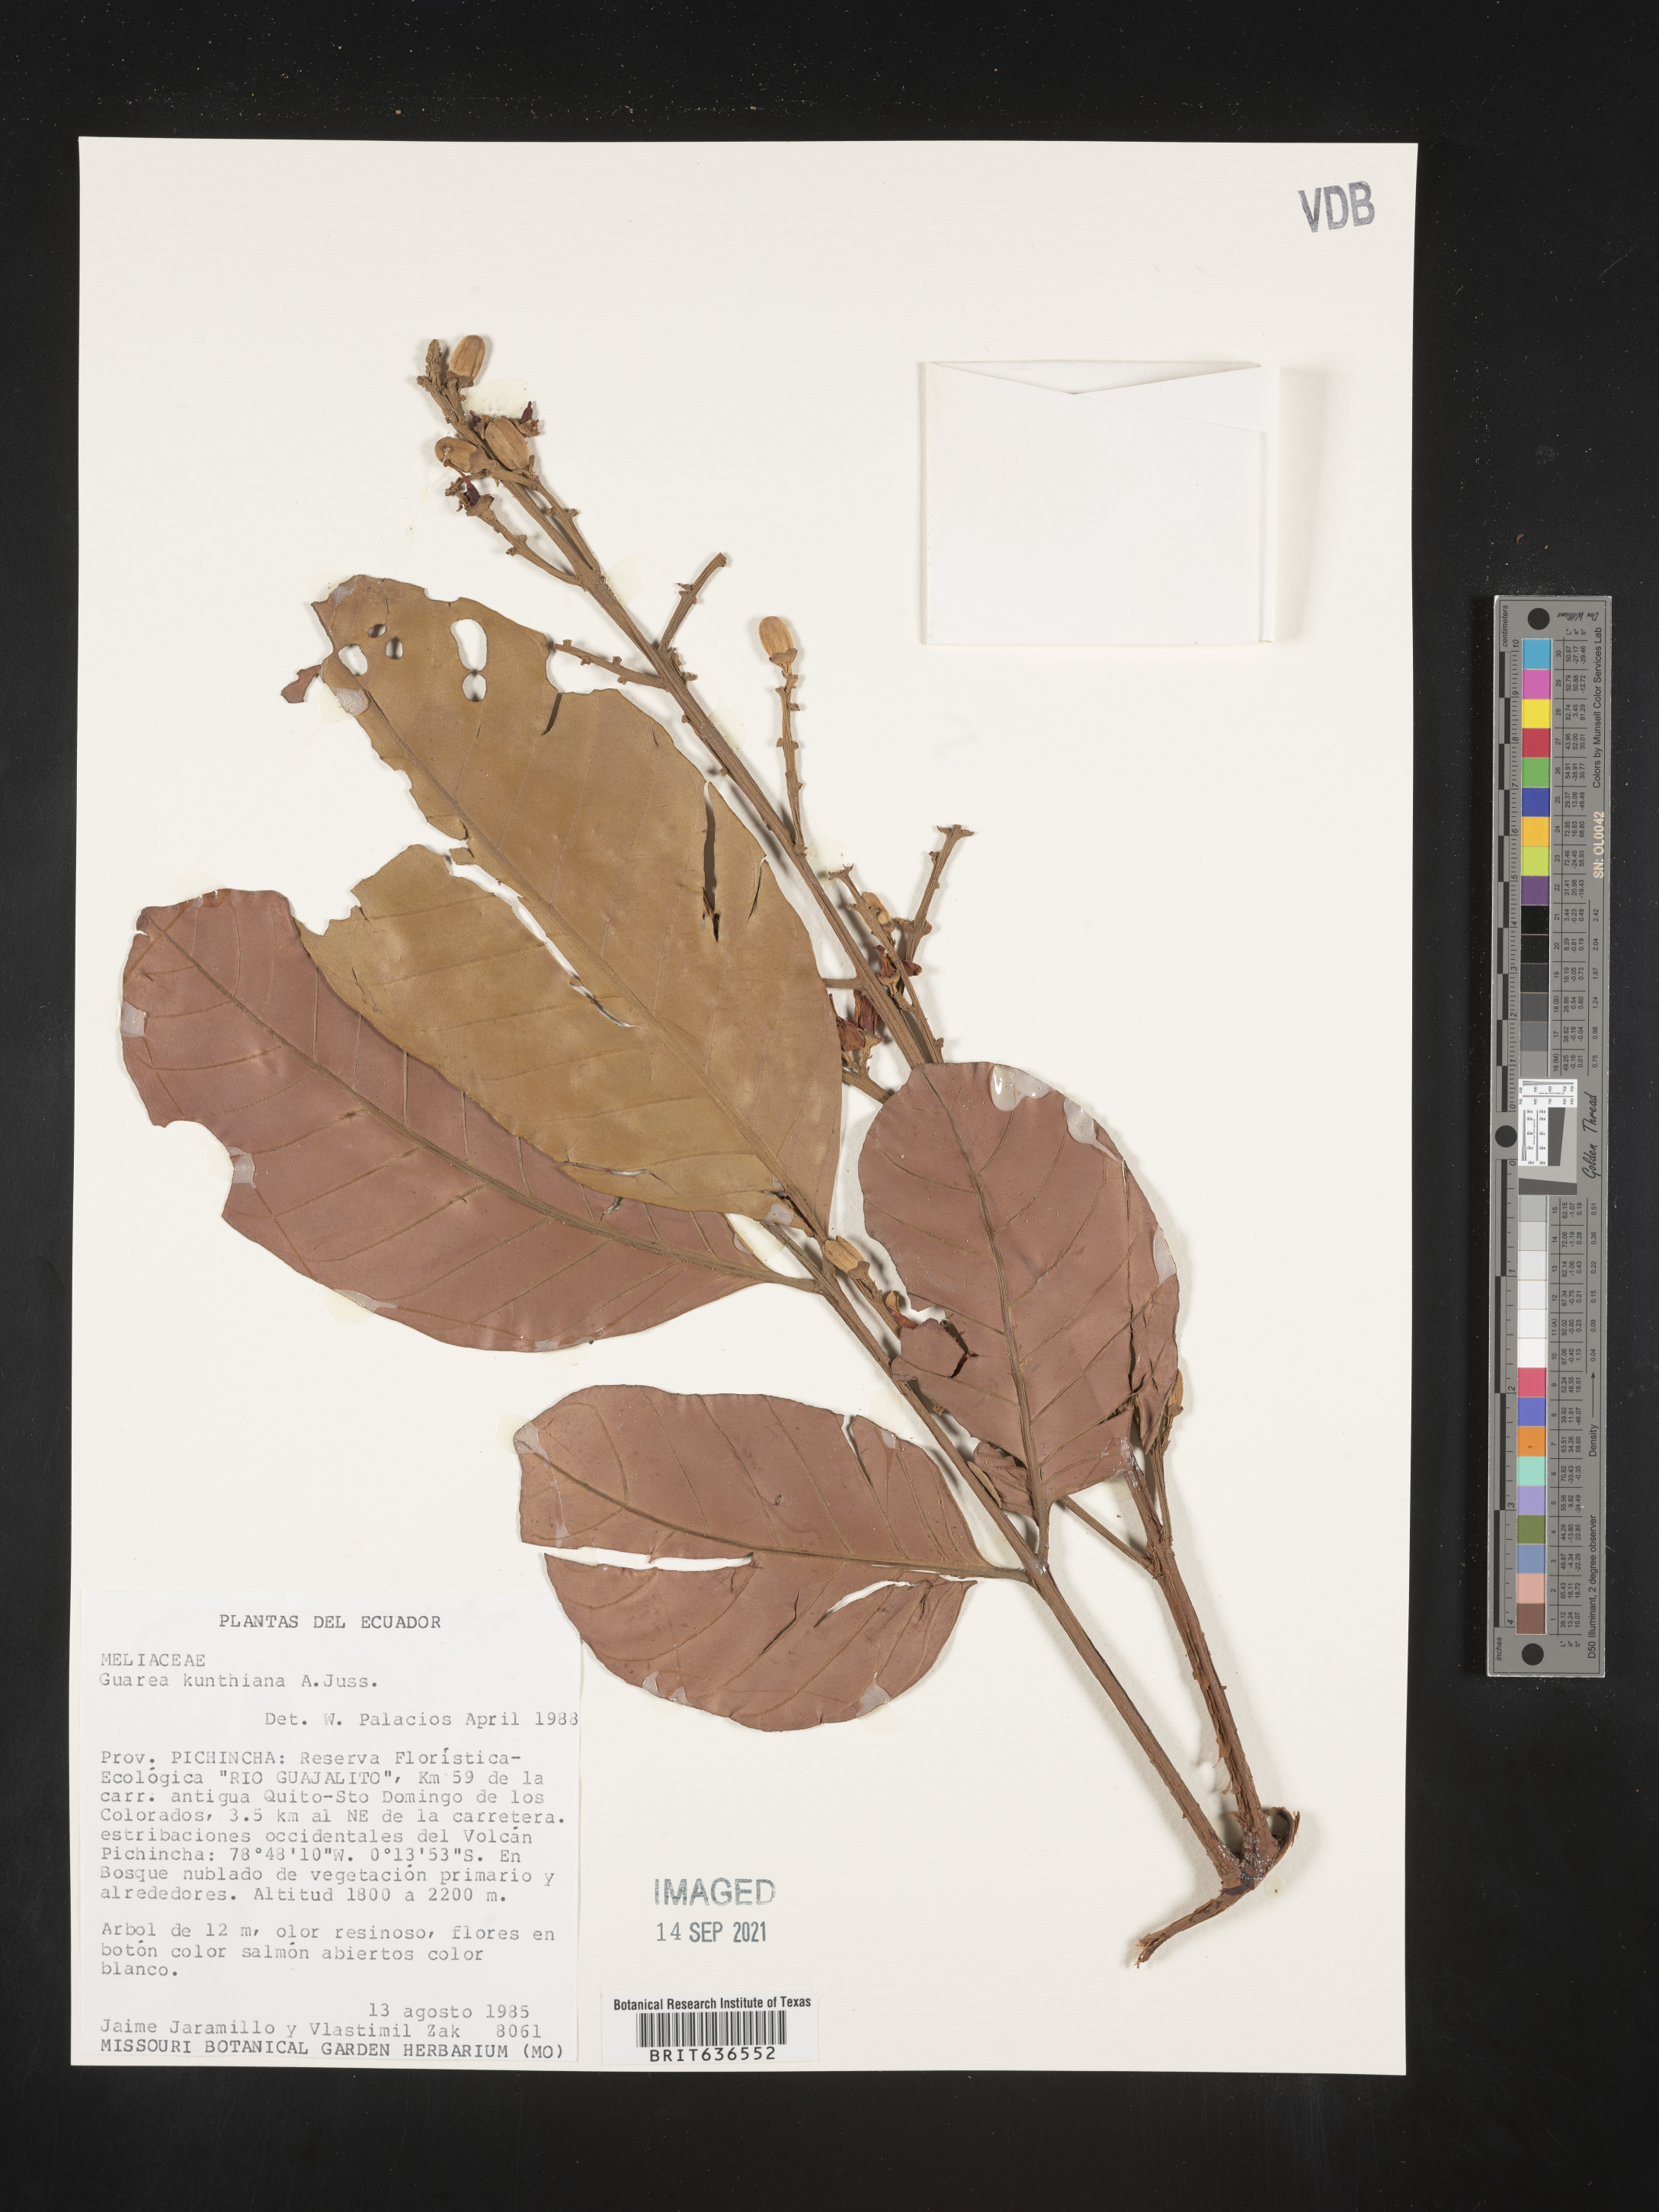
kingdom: Plantae
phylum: Tracheophyta
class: Magnoliopsida
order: Sapindales
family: Meliaceae
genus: Guarea
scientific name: Guarea
